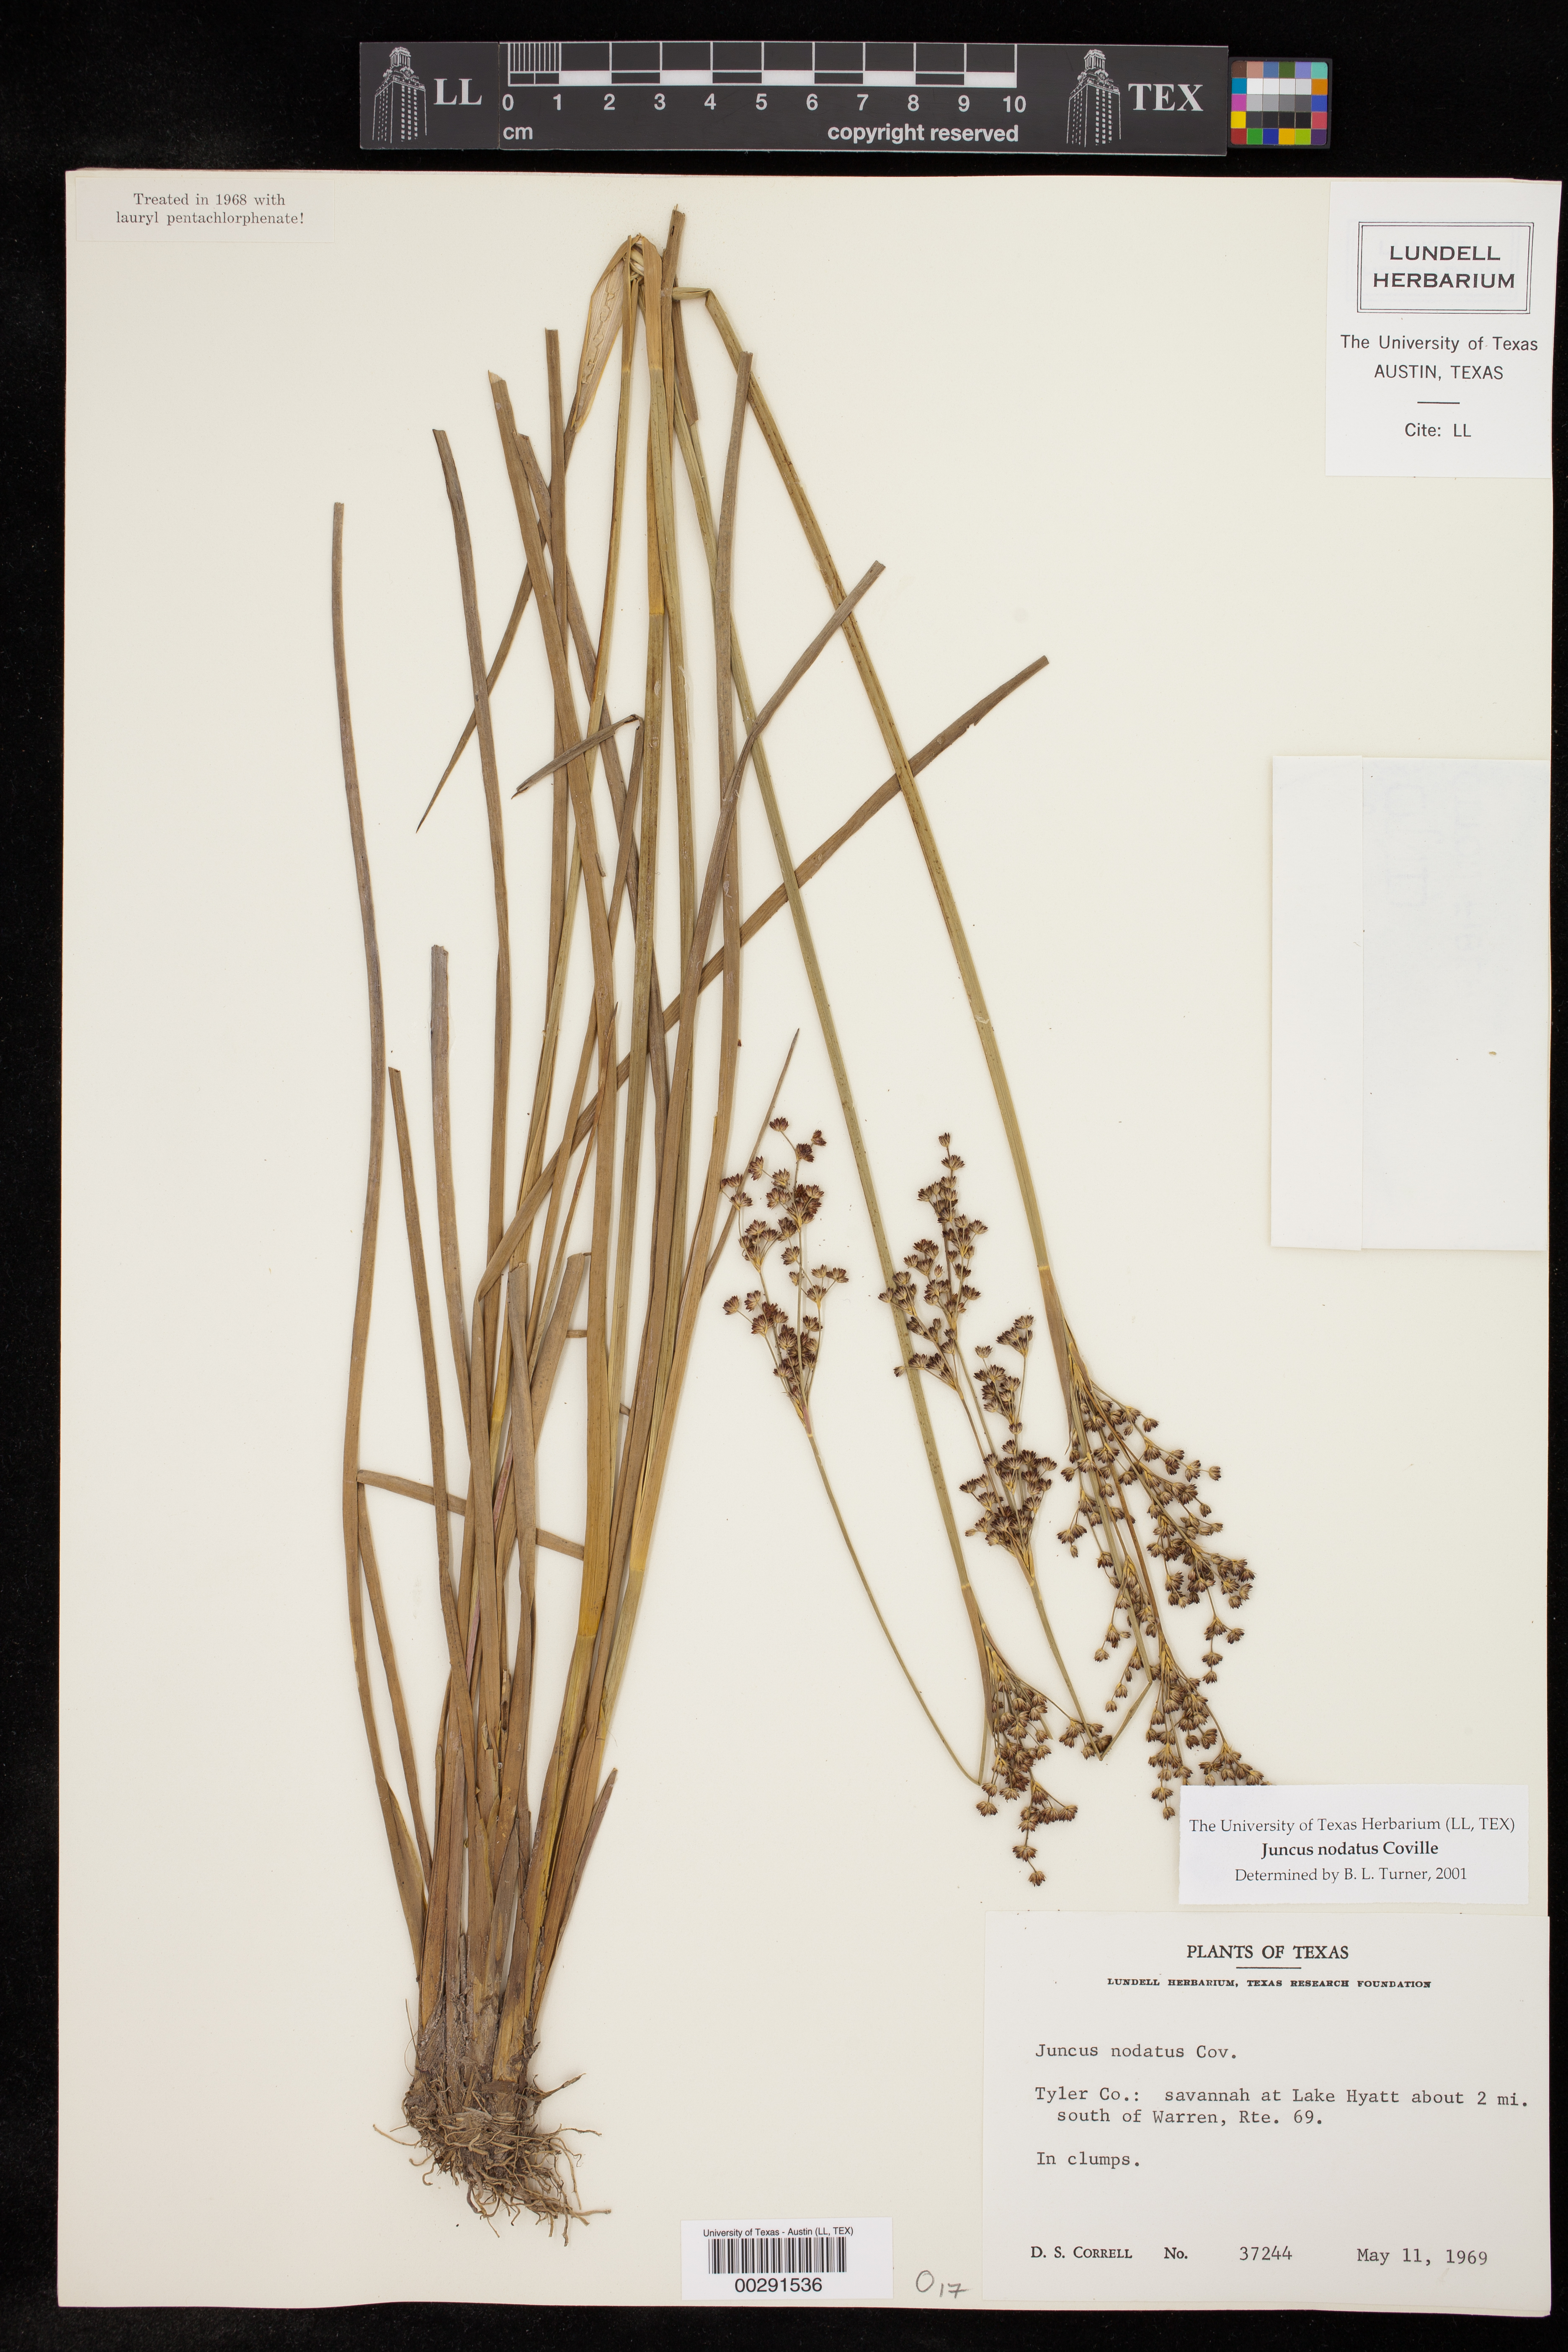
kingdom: Plantae
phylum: Tracheophyta
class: Liliopsida
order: Poales
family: Juncaceae
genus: Juncus
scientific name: Juncus nodatus
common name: Stout rush
